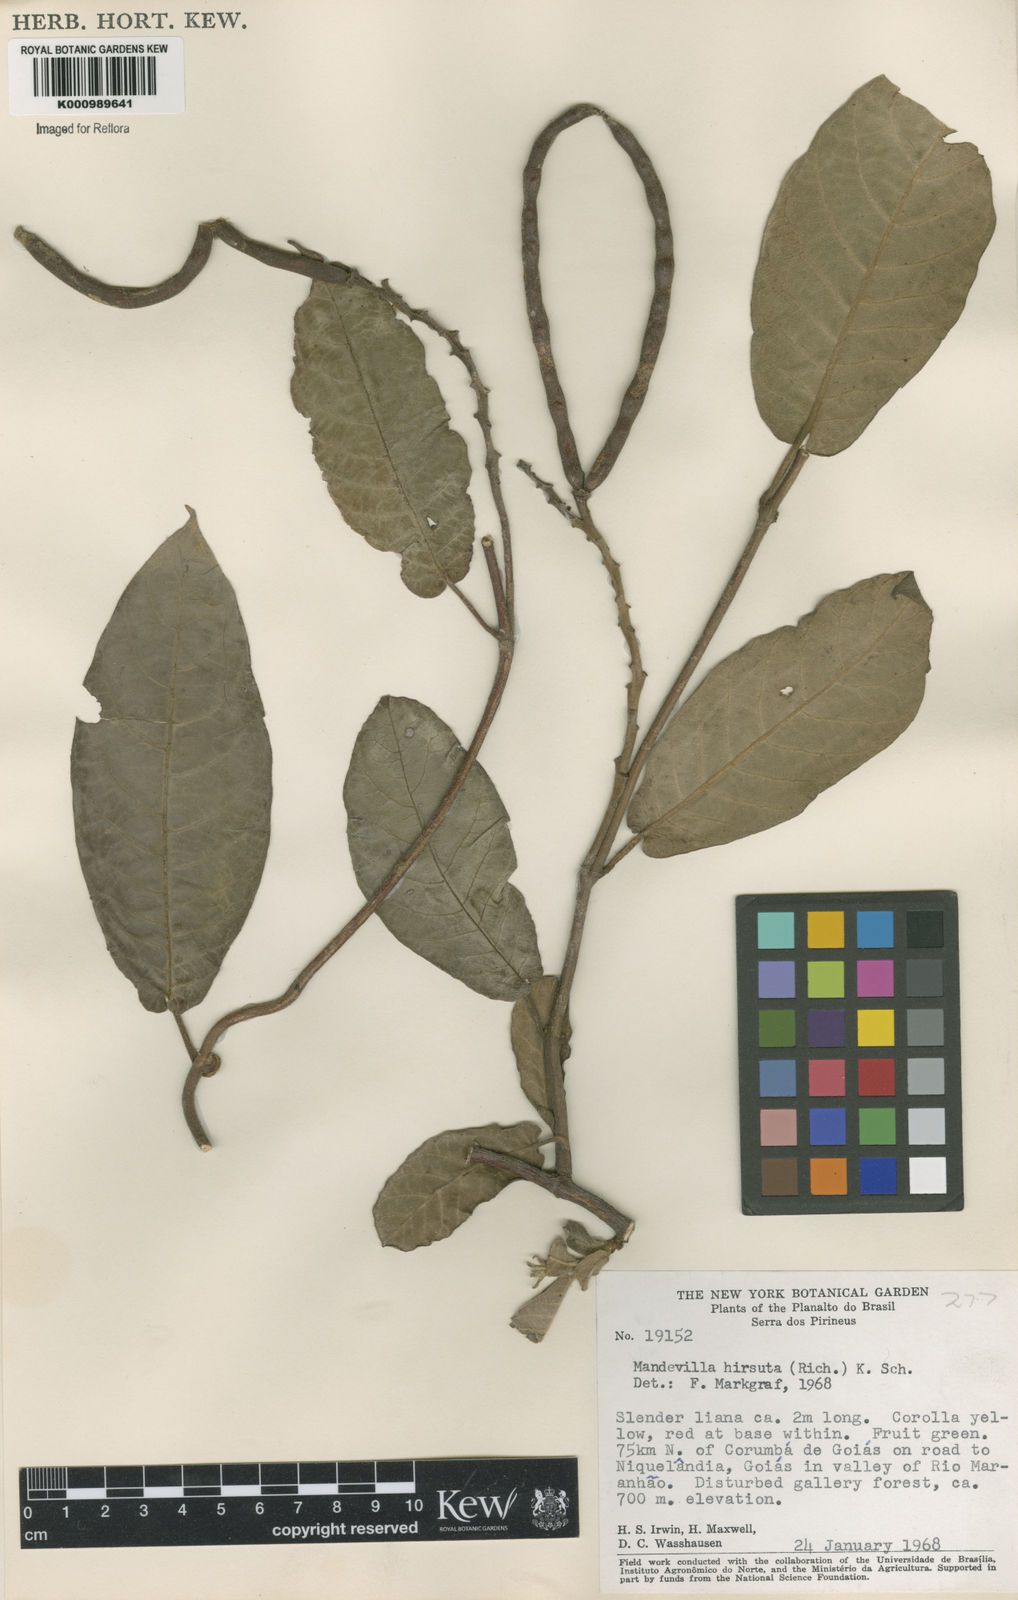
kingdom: Plantae
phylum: Tracheophyta
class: Magnoliopsida
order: Gentianales
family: Apocynaceae
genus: Mandevilla
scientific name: Mandevilla hirsuta
